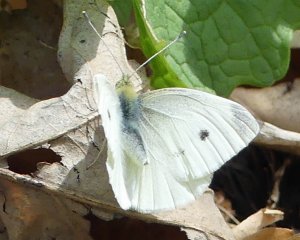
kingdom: Animalia
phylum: Arthropoda
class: Insecta
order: Lepidoptera
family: Pieridae
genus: Pieris
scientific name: Pieris rapae
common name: Cabbage White
